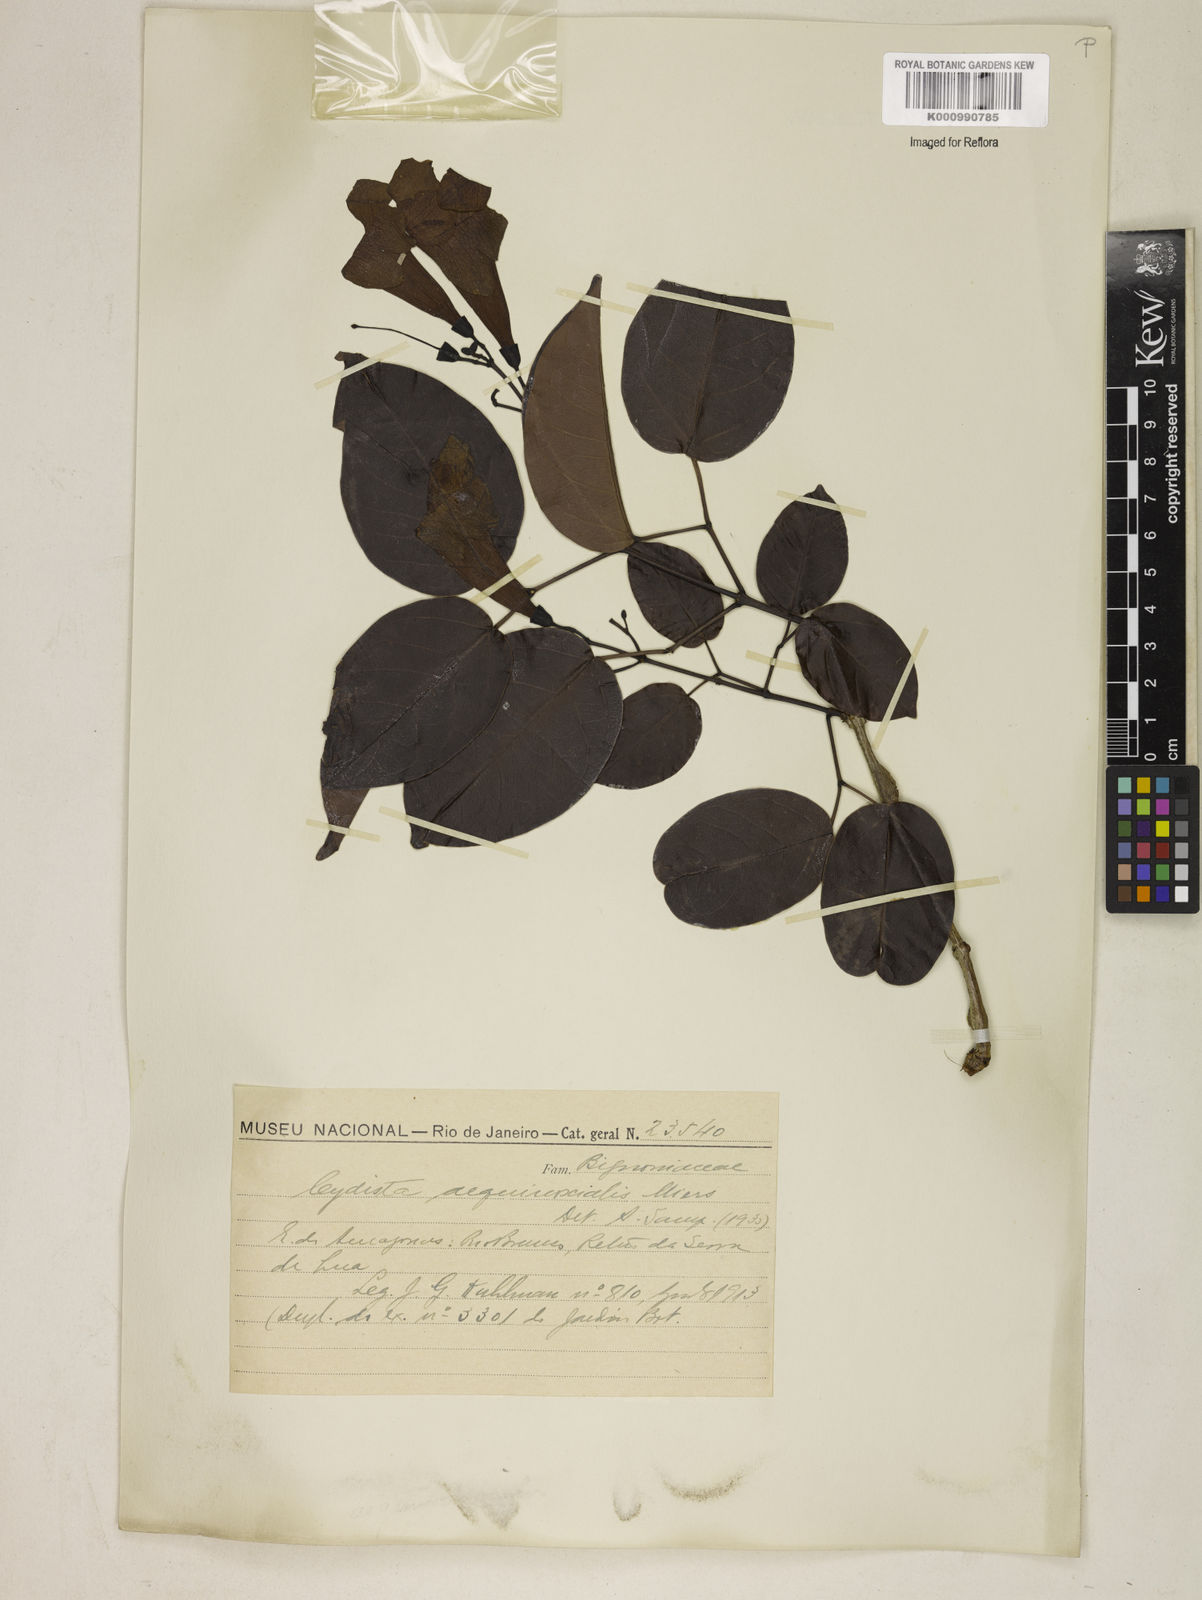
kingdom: Plantae
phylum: Tracheophyta
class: Magnoliopsida
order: Lamiales
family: Bignoniaceae
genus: Bignonia
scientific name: Bignonia aequinoctialis
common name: Garlicvine
